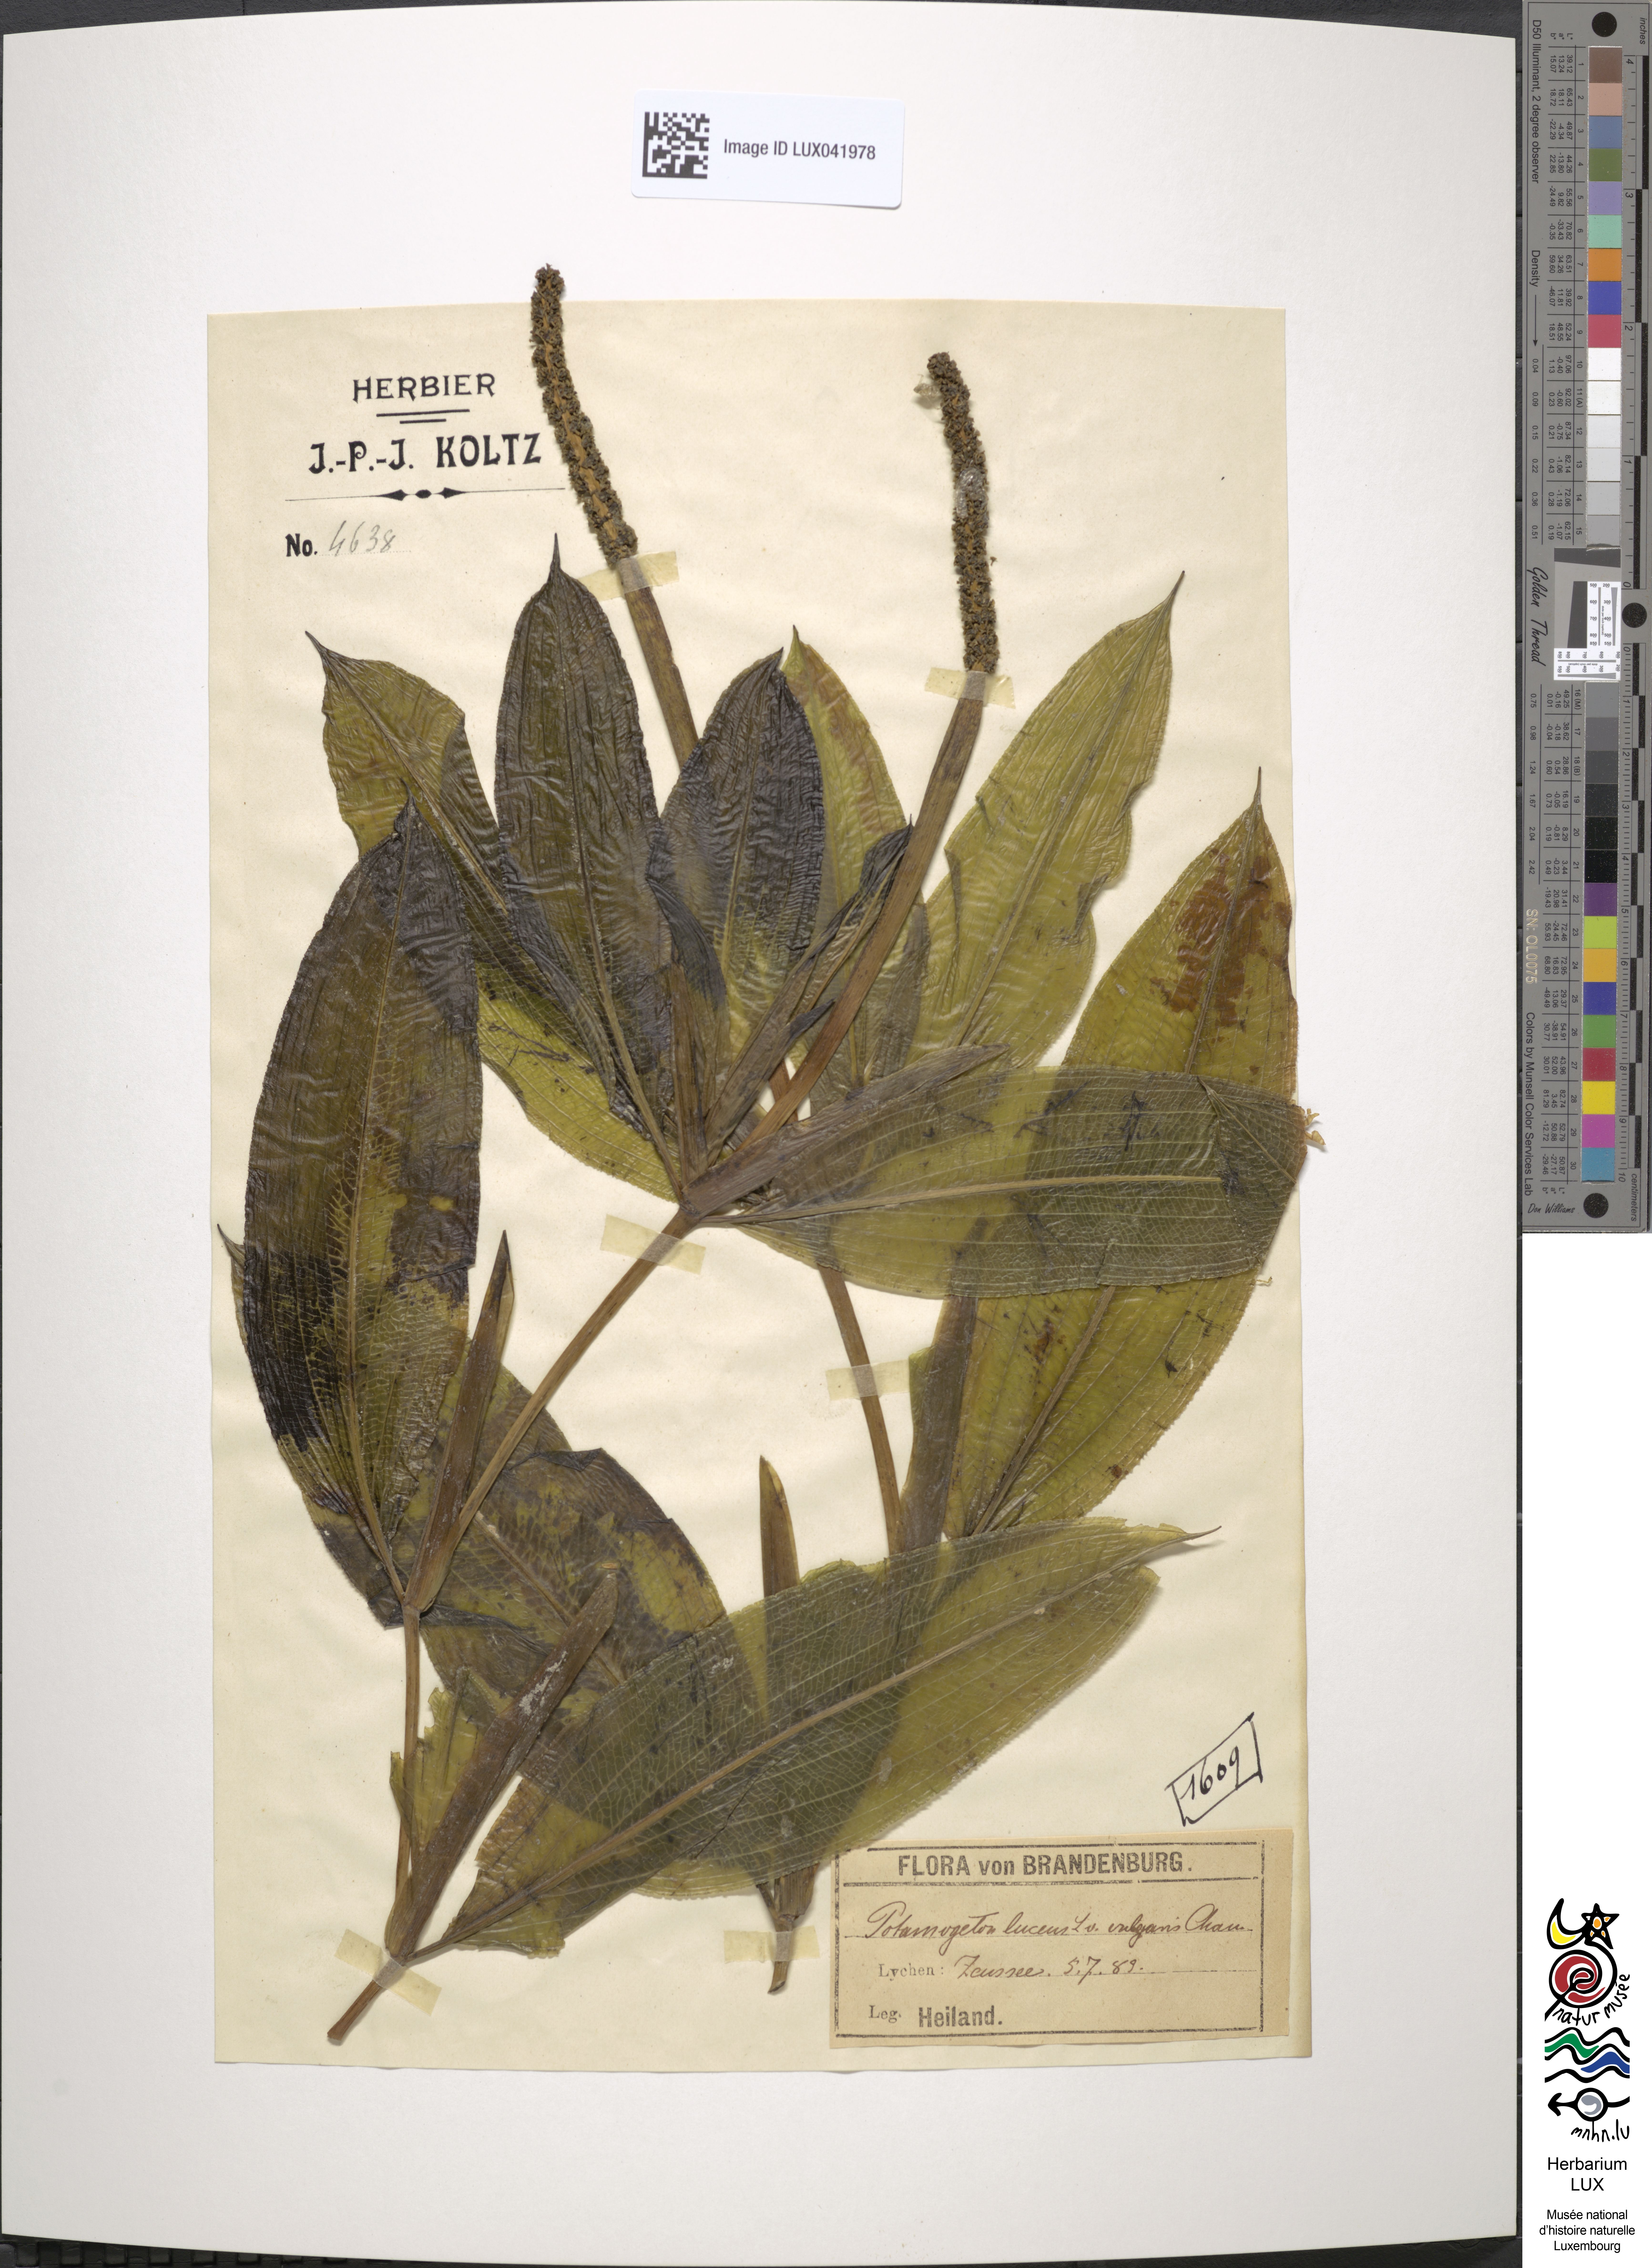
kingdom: Plantae
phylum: Tracheophyta
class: Liliopsida
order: Alismatales
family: Potamogetonaceae
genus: Potamogeton
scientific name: Potamogeton lucens
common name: Shining pondweed
